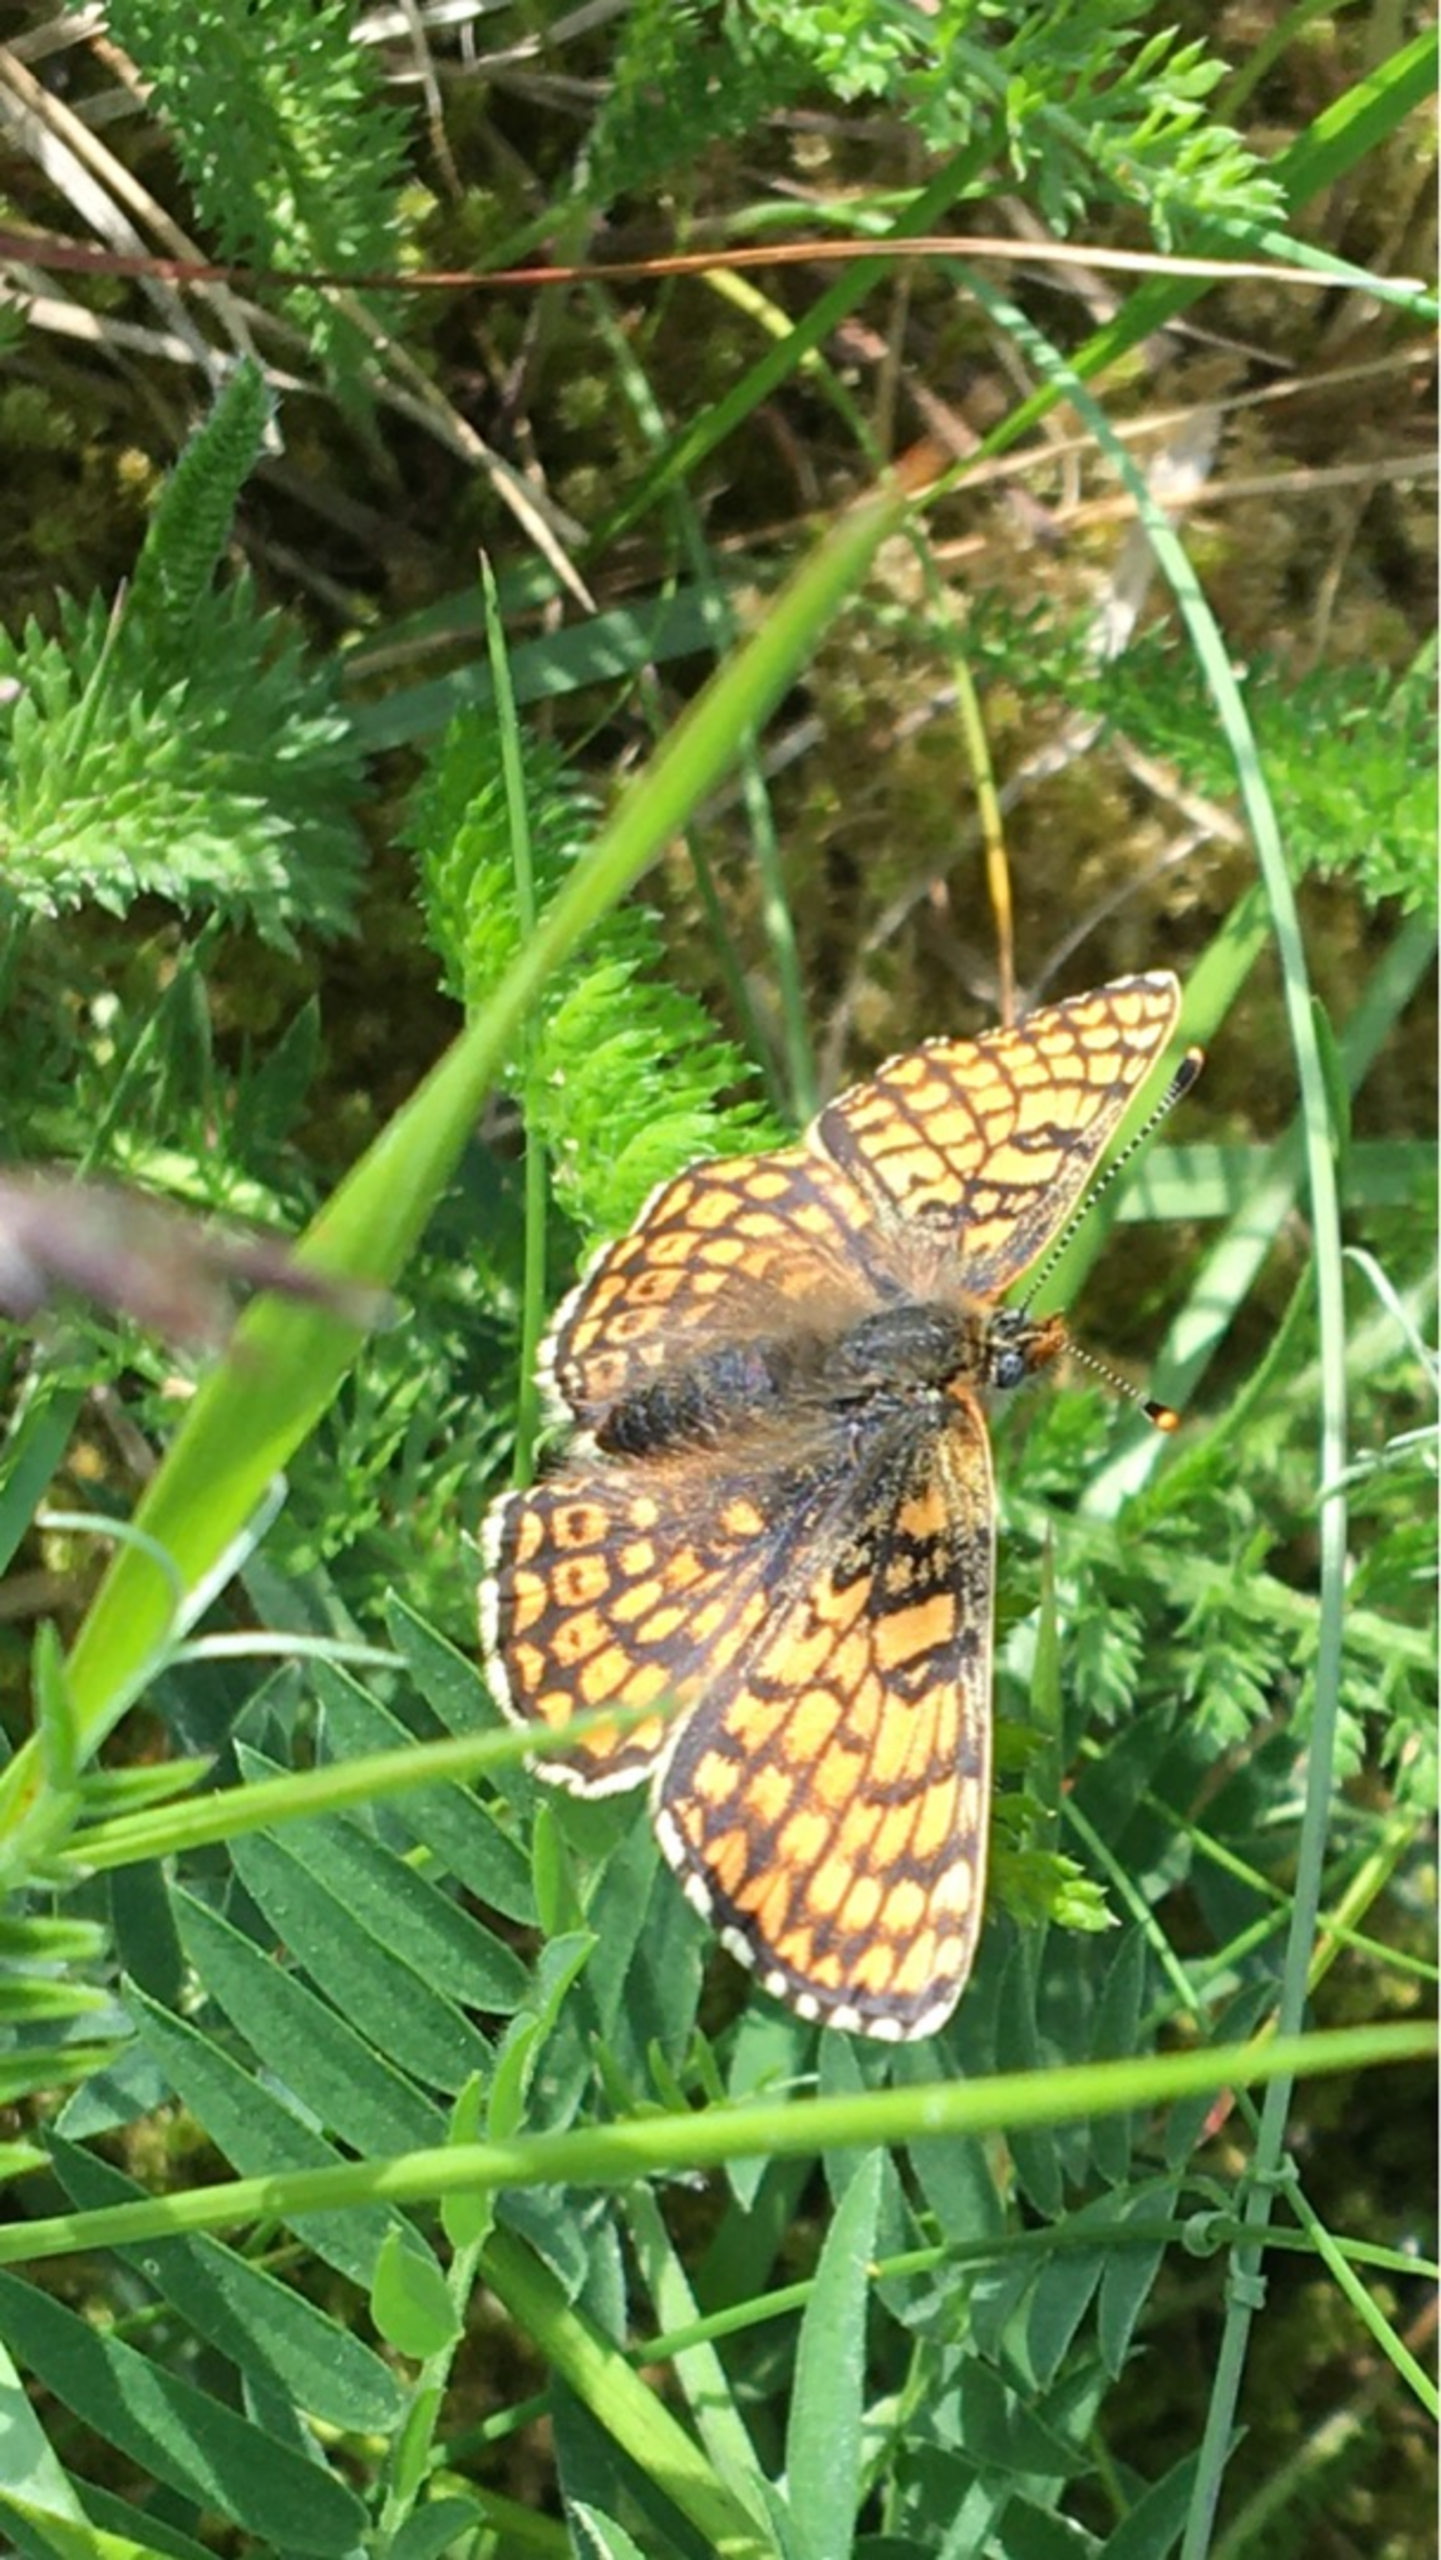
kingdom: Animalia
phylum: Arthropoda
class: Insecta
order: Lepidoptera
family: Nymphalidae
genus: Melitaea
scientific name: Melitaea cinxia
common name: Okkergul pletvinge
